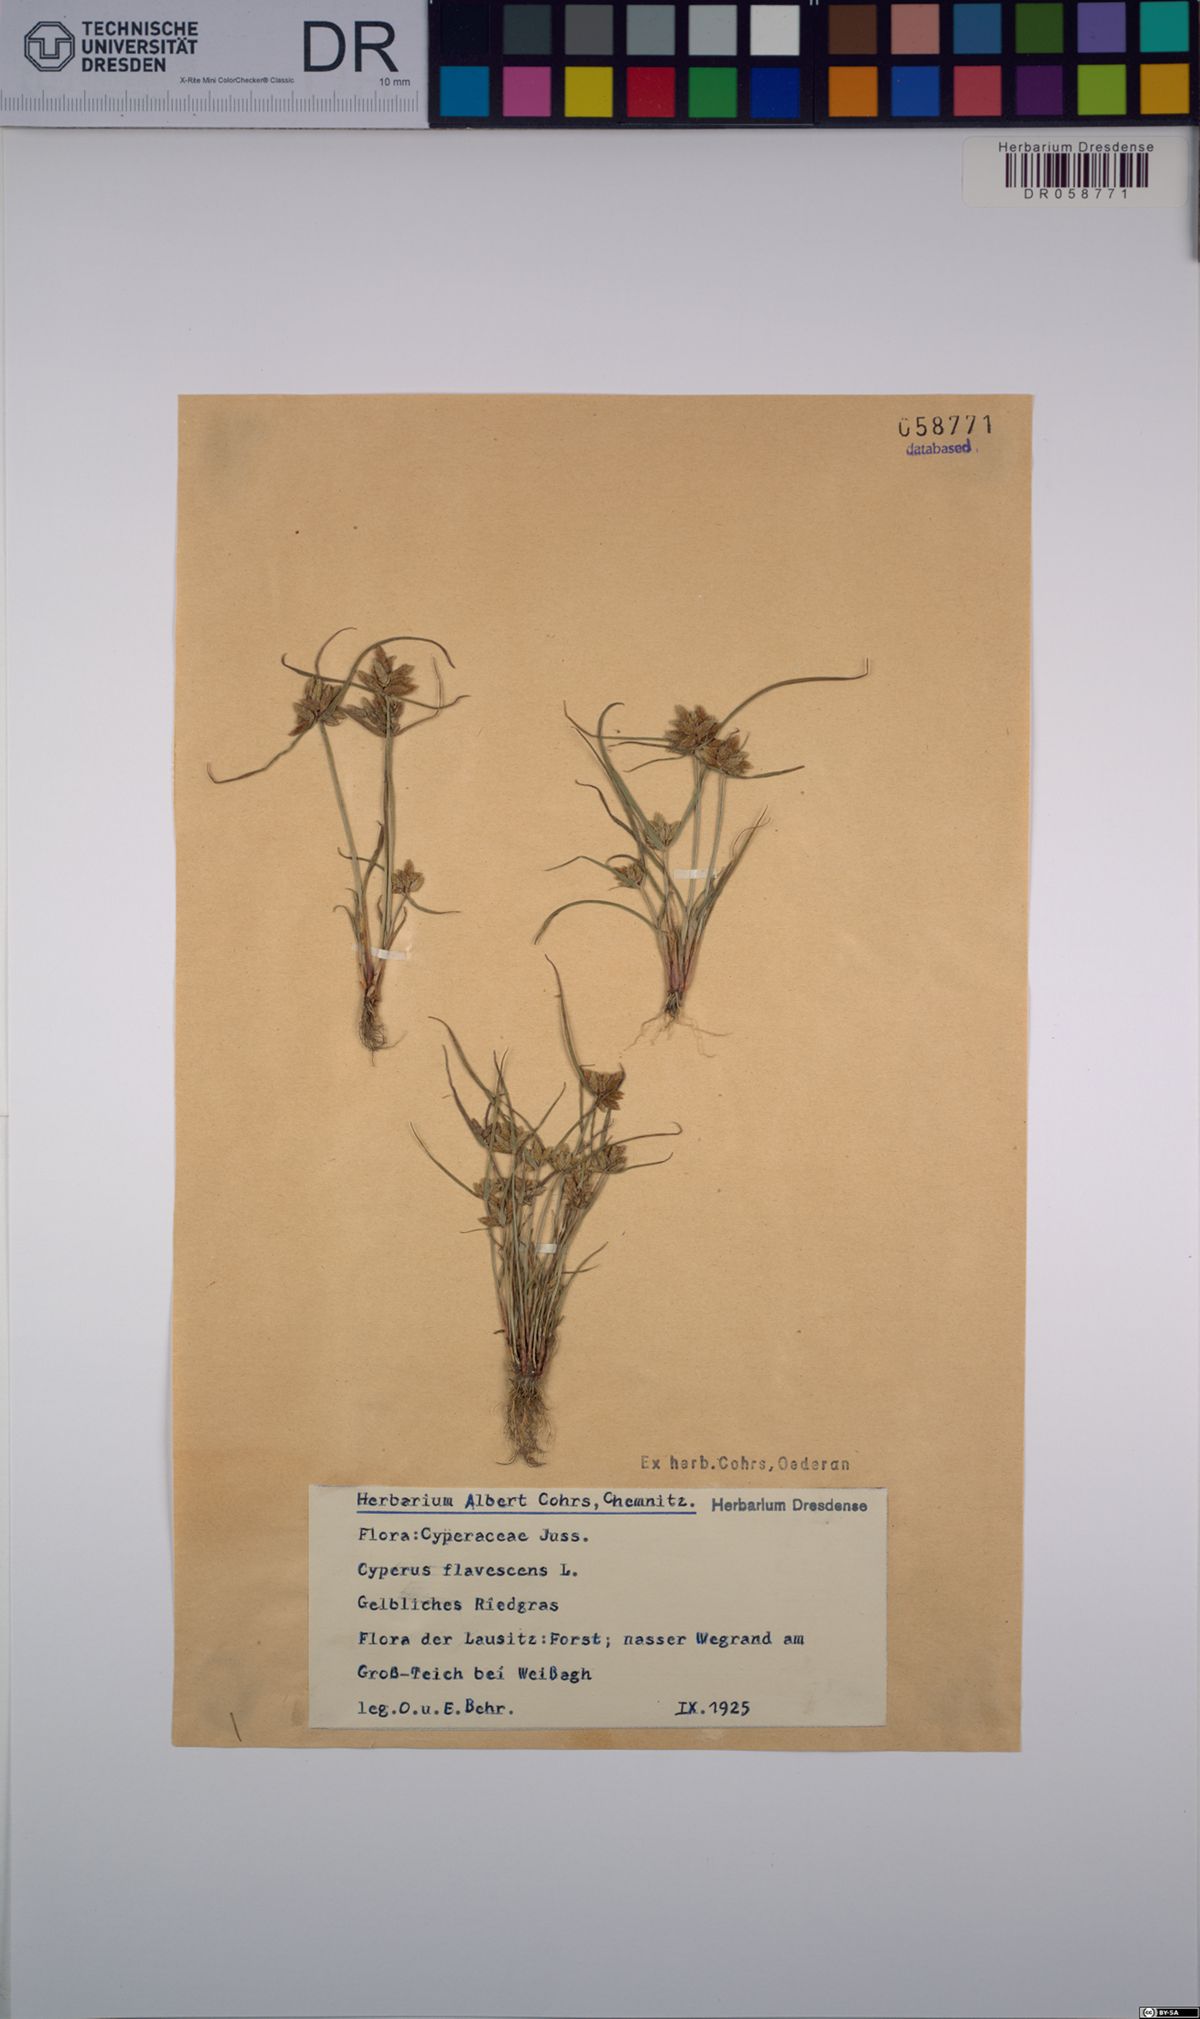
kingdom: Plantae
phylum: Tracheophyta
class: Liliopsida
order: Poales
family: Cyperaceae
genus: Cyperus
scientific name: Cyperus flavescens
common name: Yellow galingale
